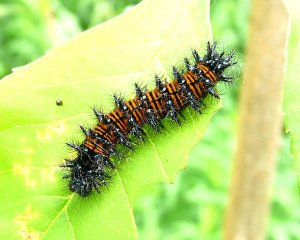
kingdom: Animalia
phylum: Arthropoda
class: Insecta
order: Lepidoptera
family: Nymphalidae
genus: Euphydryas
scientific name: Euphydryas phaeton
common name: Baltimore Checkerspot
